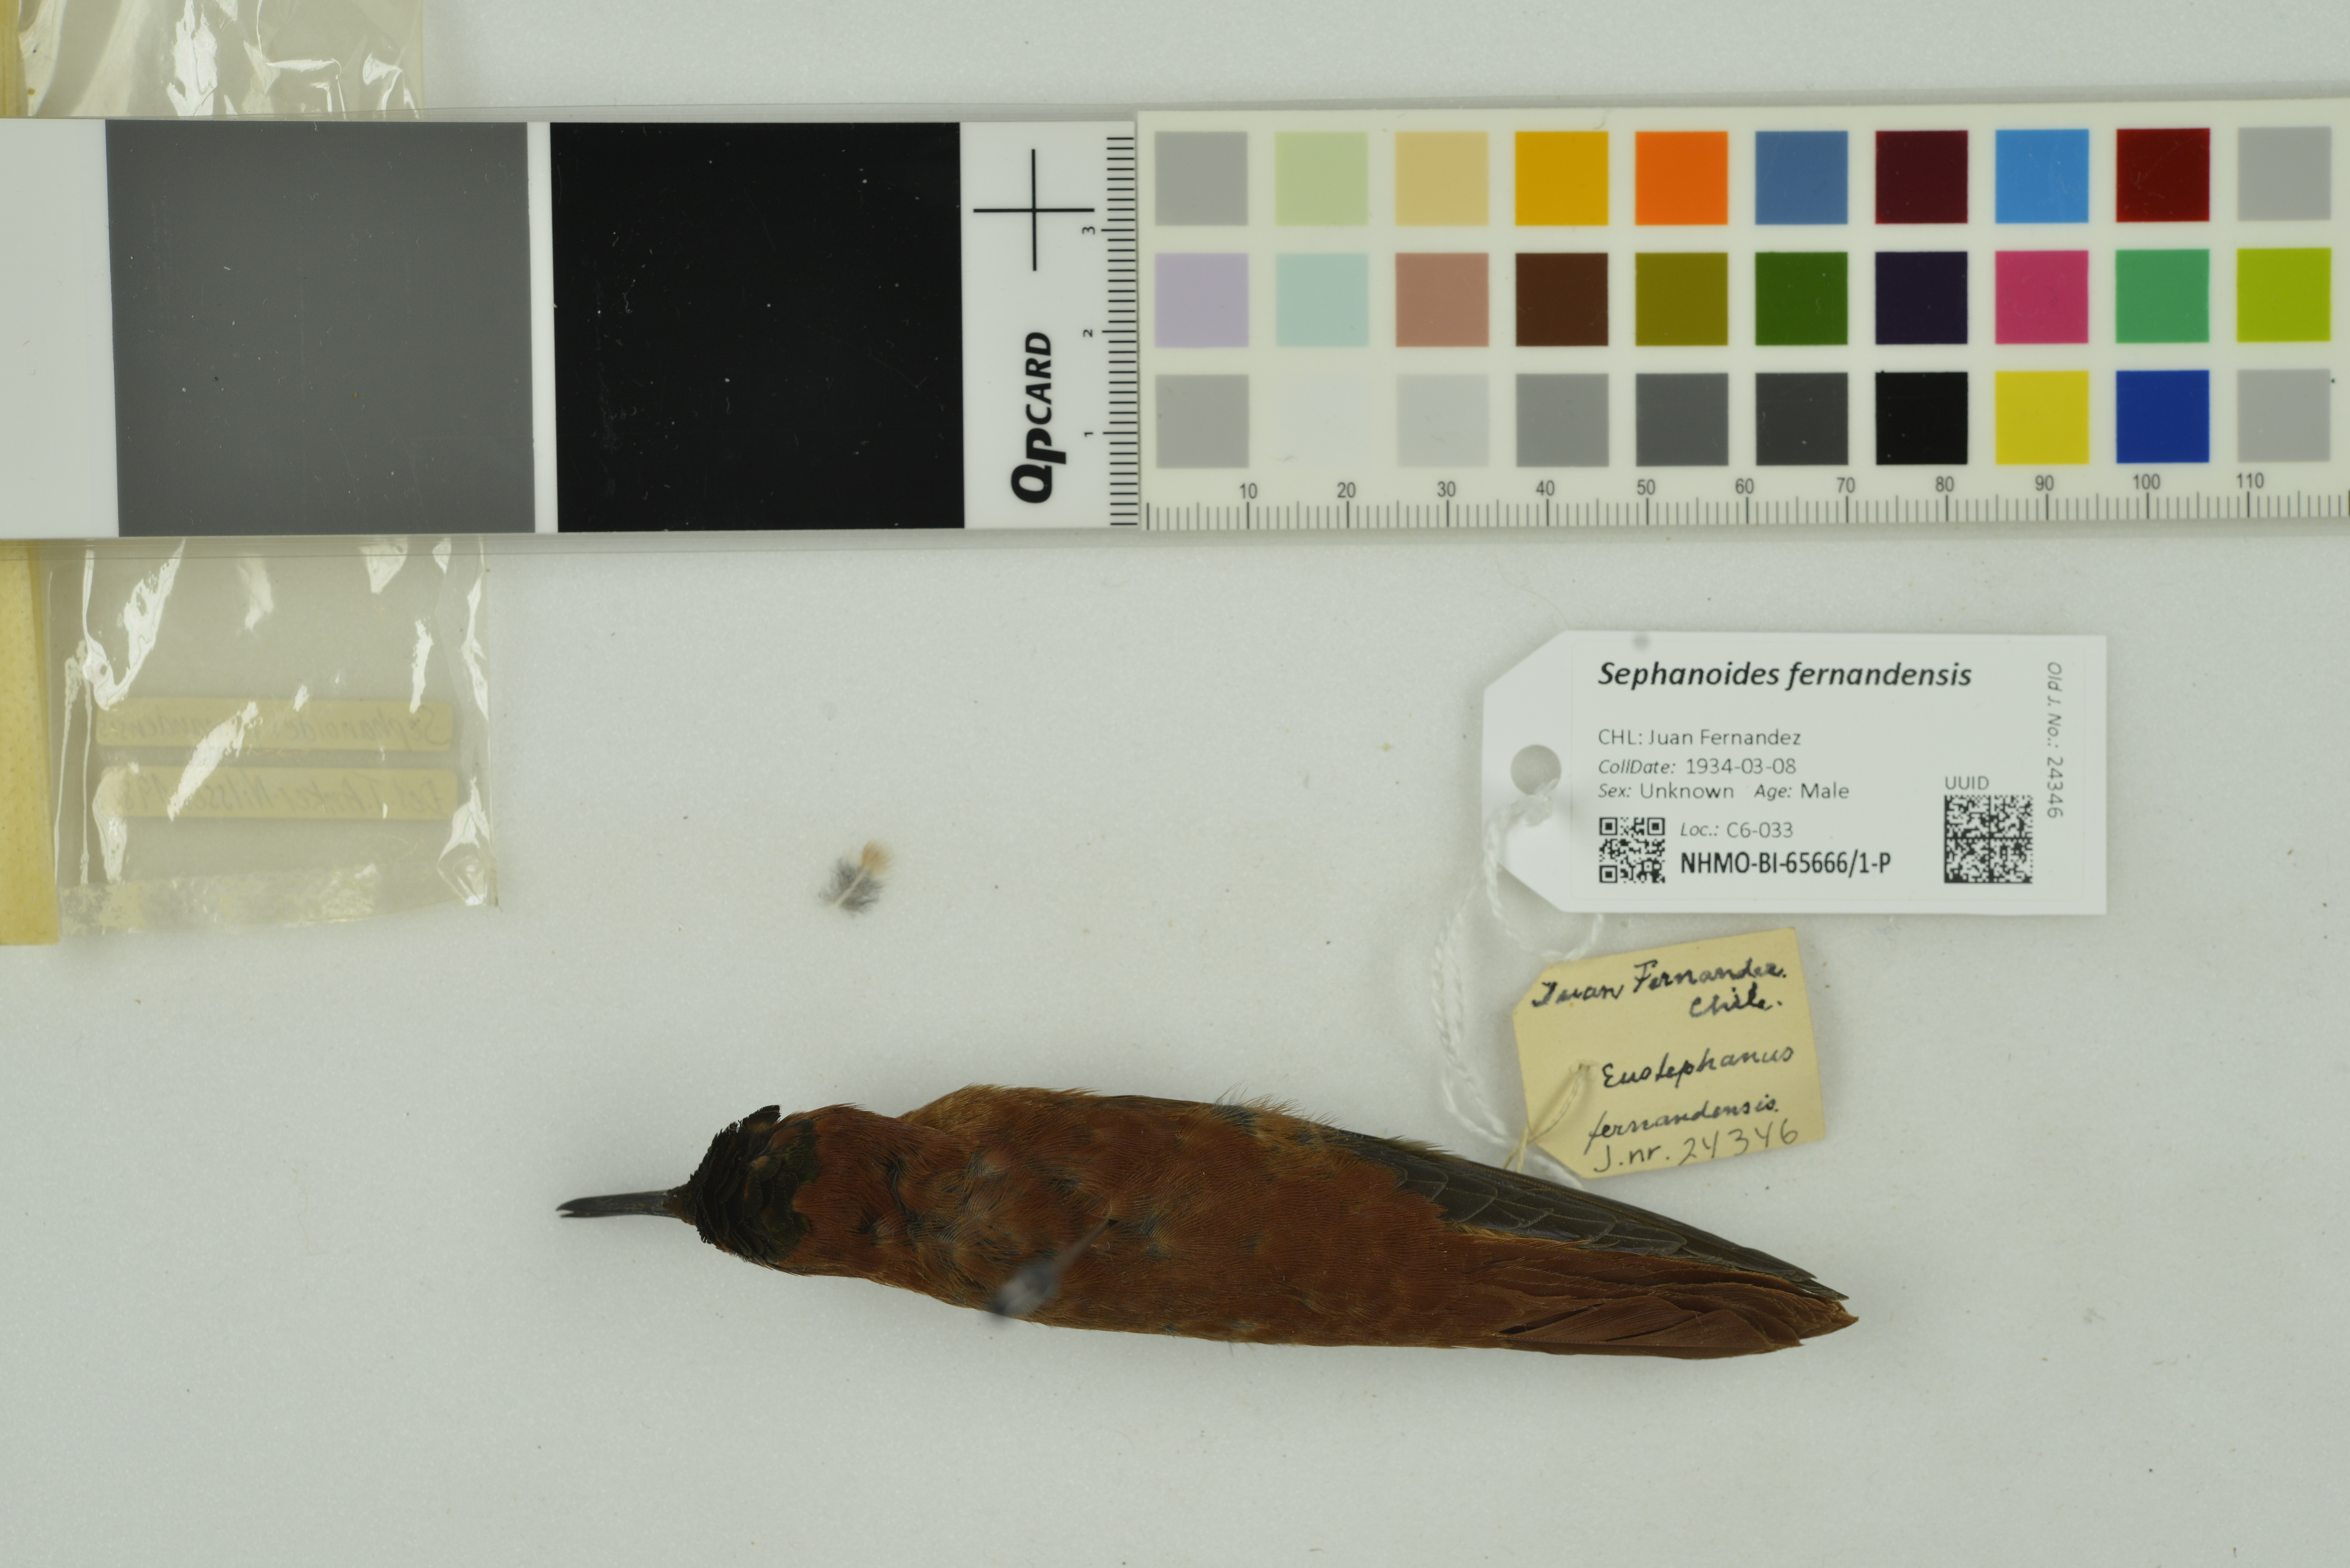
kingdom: Animalia
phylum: Chordata
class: Aves
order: Apodiformes
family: Trochilidae
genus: Sephanoides
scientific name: Sephanoides fernandensis
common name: Juan fernandez firecrown
